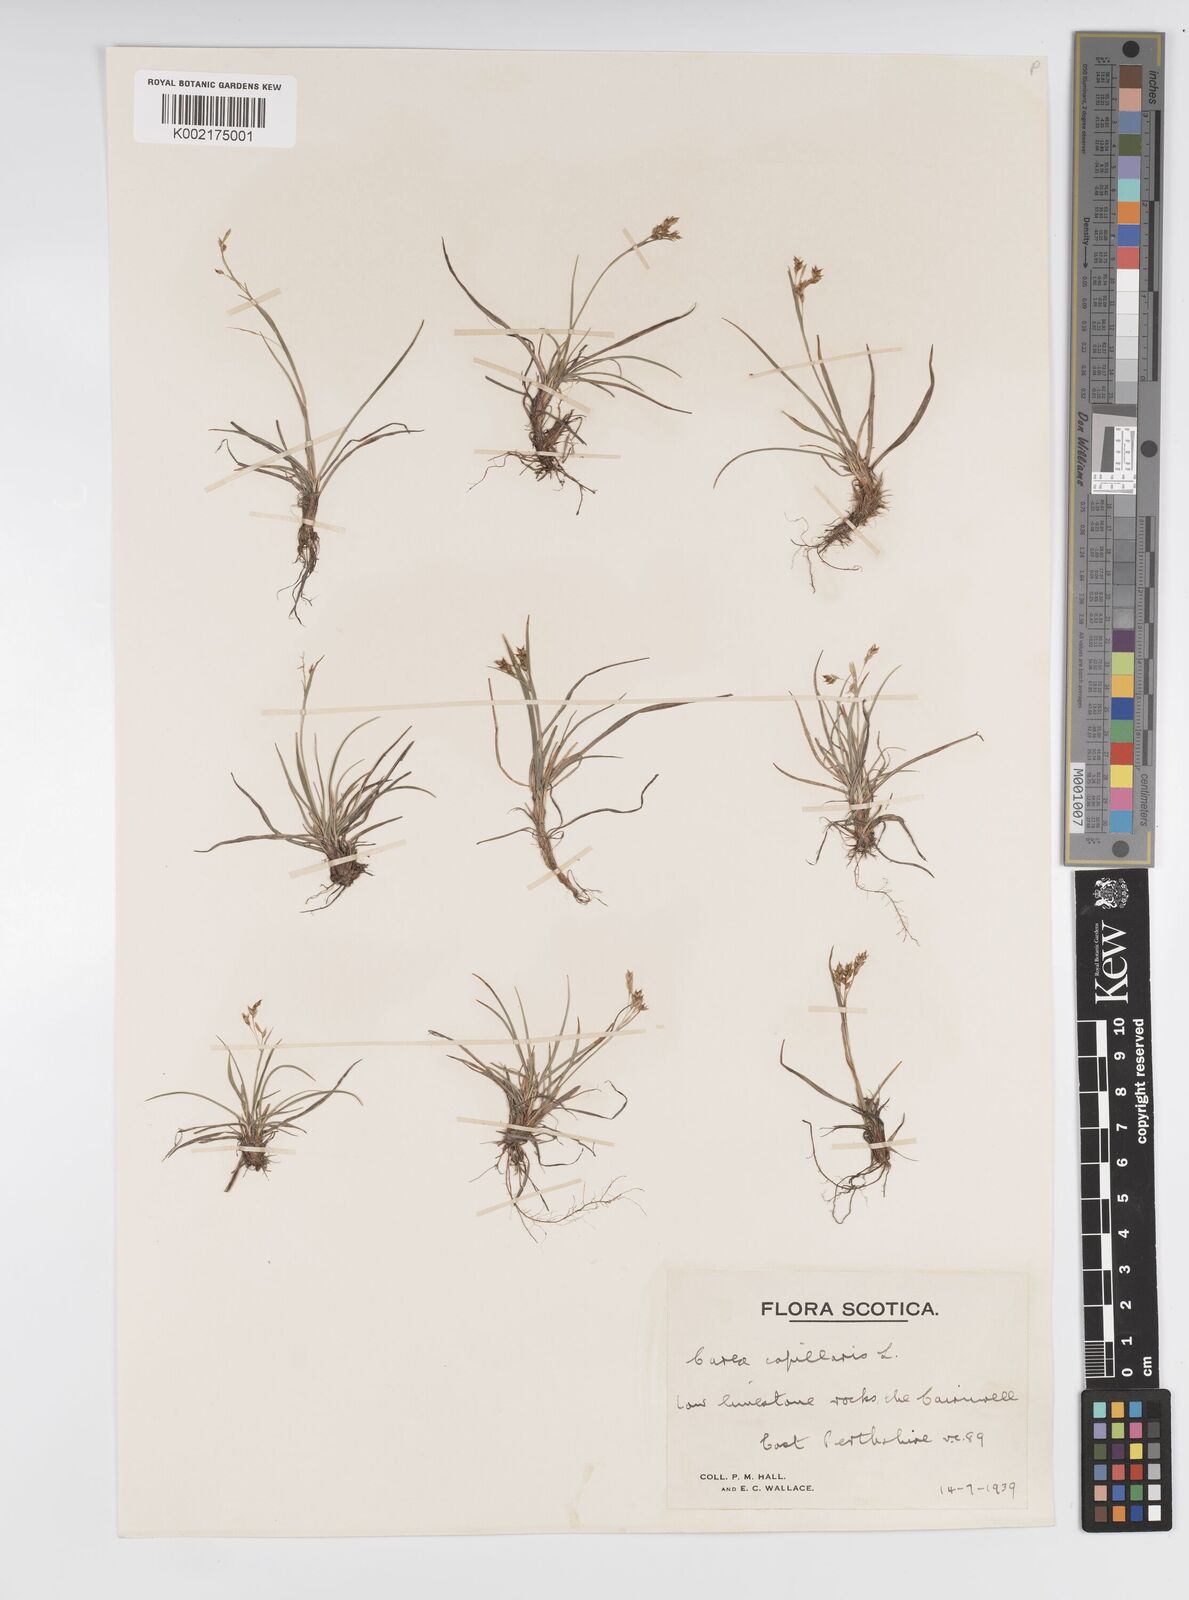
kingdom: Plantae
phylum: Tracheophyta
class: Liliopsida
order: Poales
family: Cyperaceae
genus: Carex
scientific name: Carex capillaris
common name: Hair sedge
